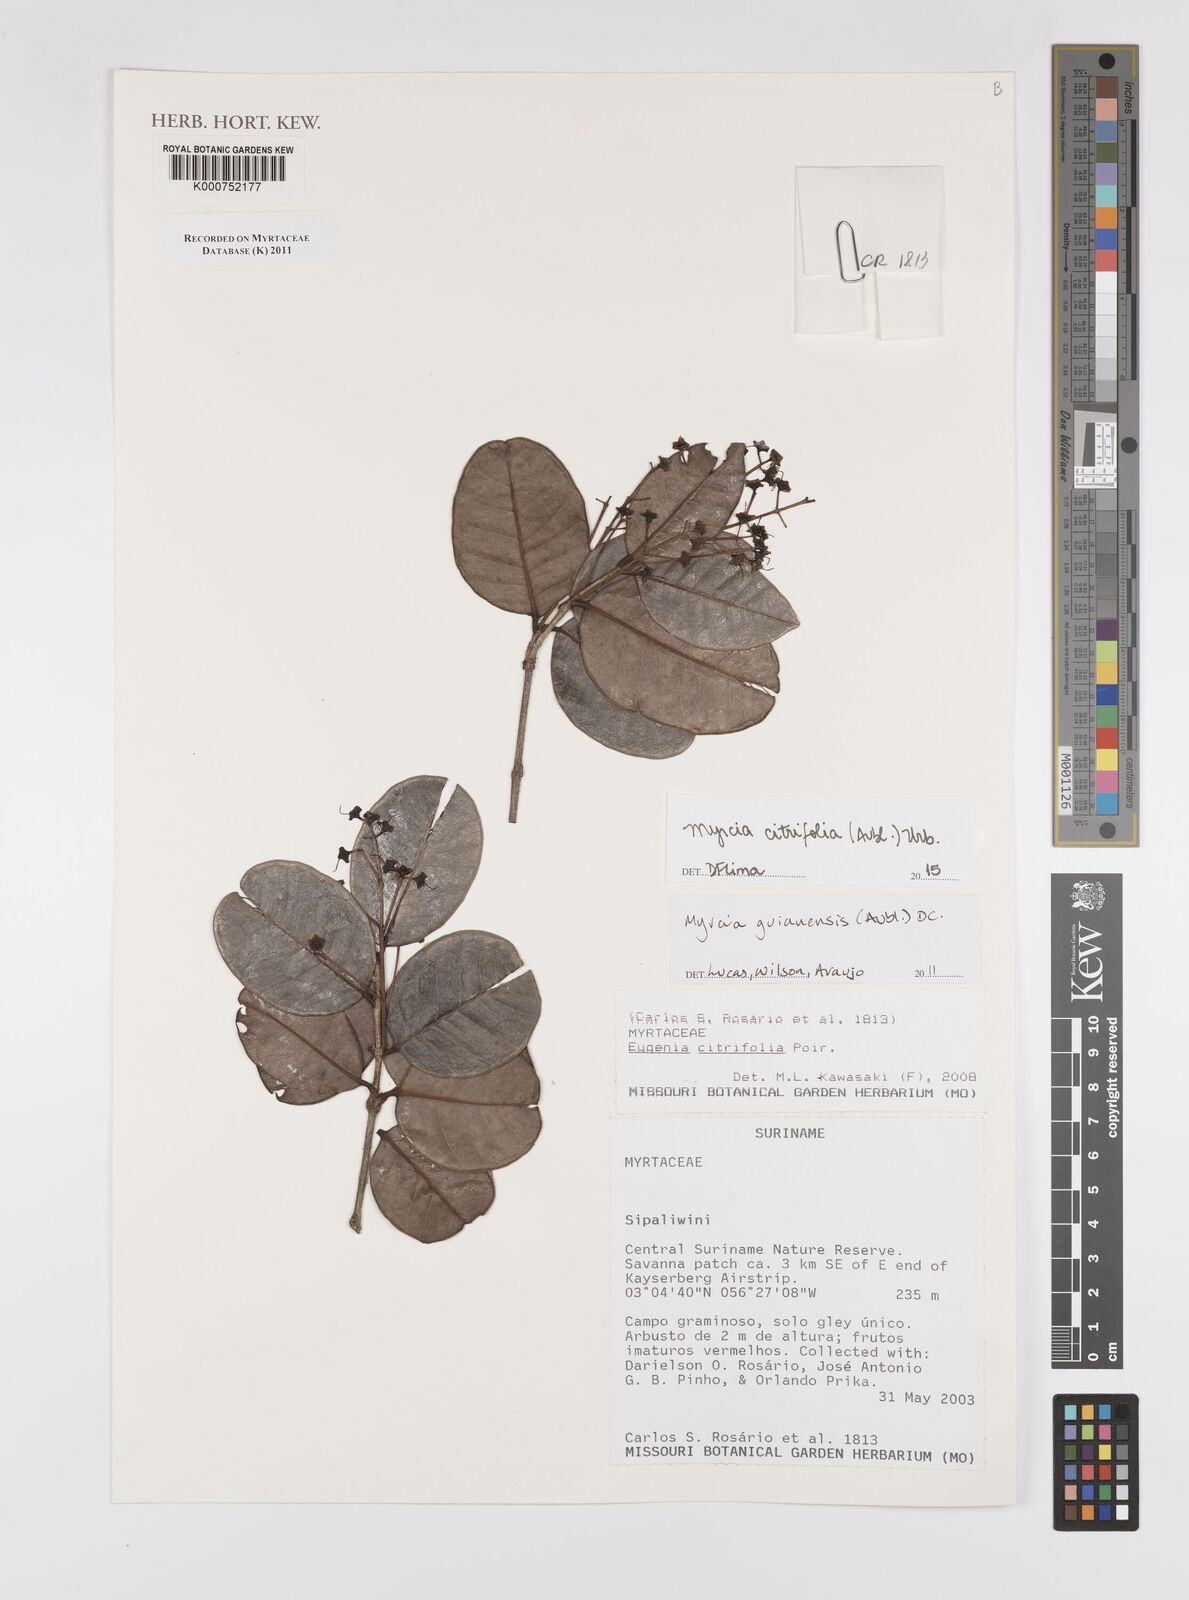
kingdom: Plantae
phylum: Tracheophyta
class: Magnoliopsida
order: Myrtales
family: Myrtaceae
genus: Myrcia
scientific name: Myrcia guianensis
